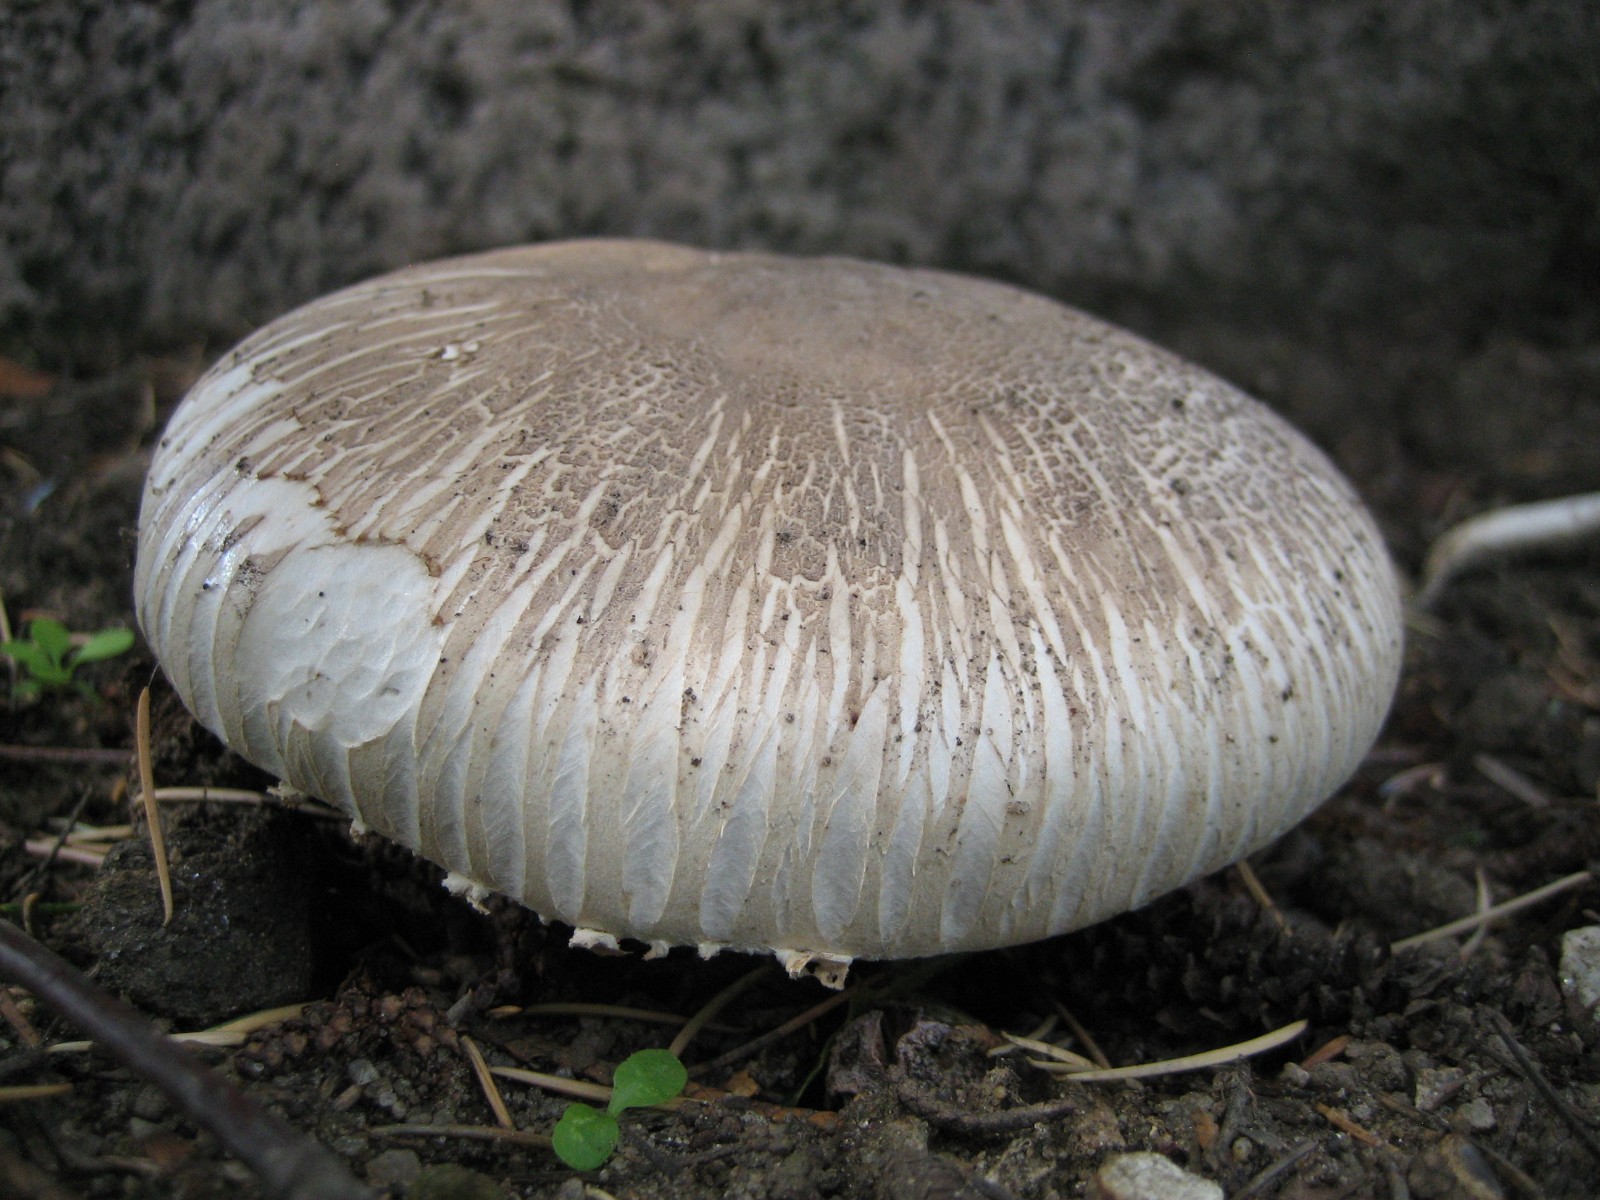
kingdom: Fungi
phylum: Basidiomycota
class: Agaricomycetes
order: Agaricales
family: Agaricaceae
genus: Agaricus
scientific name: Agaricus xanthodermus
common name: karbol-champignon
